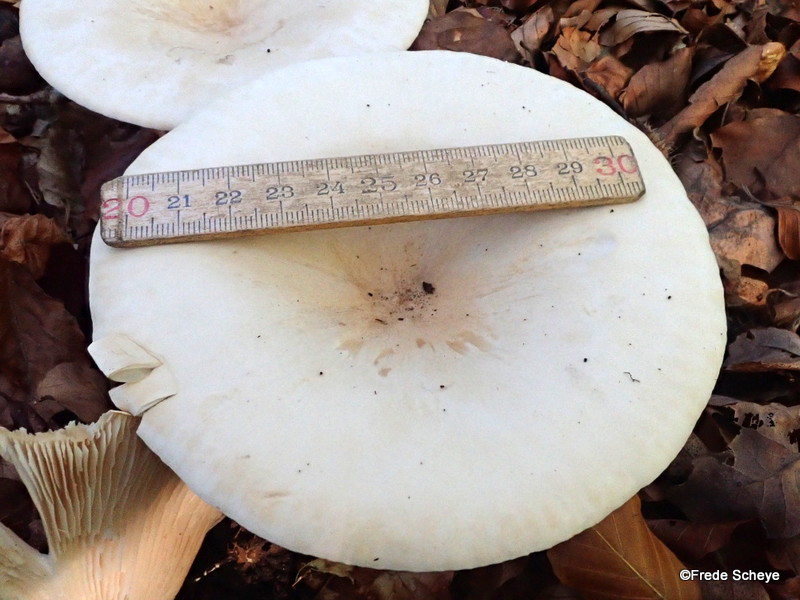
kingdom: Fungi
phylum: Basidiomycota
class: Agaricomycetes
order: Agaricales
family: Tricholomataceae
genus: Infundibulicybe
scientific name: Infundibulicybe geotropa
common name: stor tragthat
